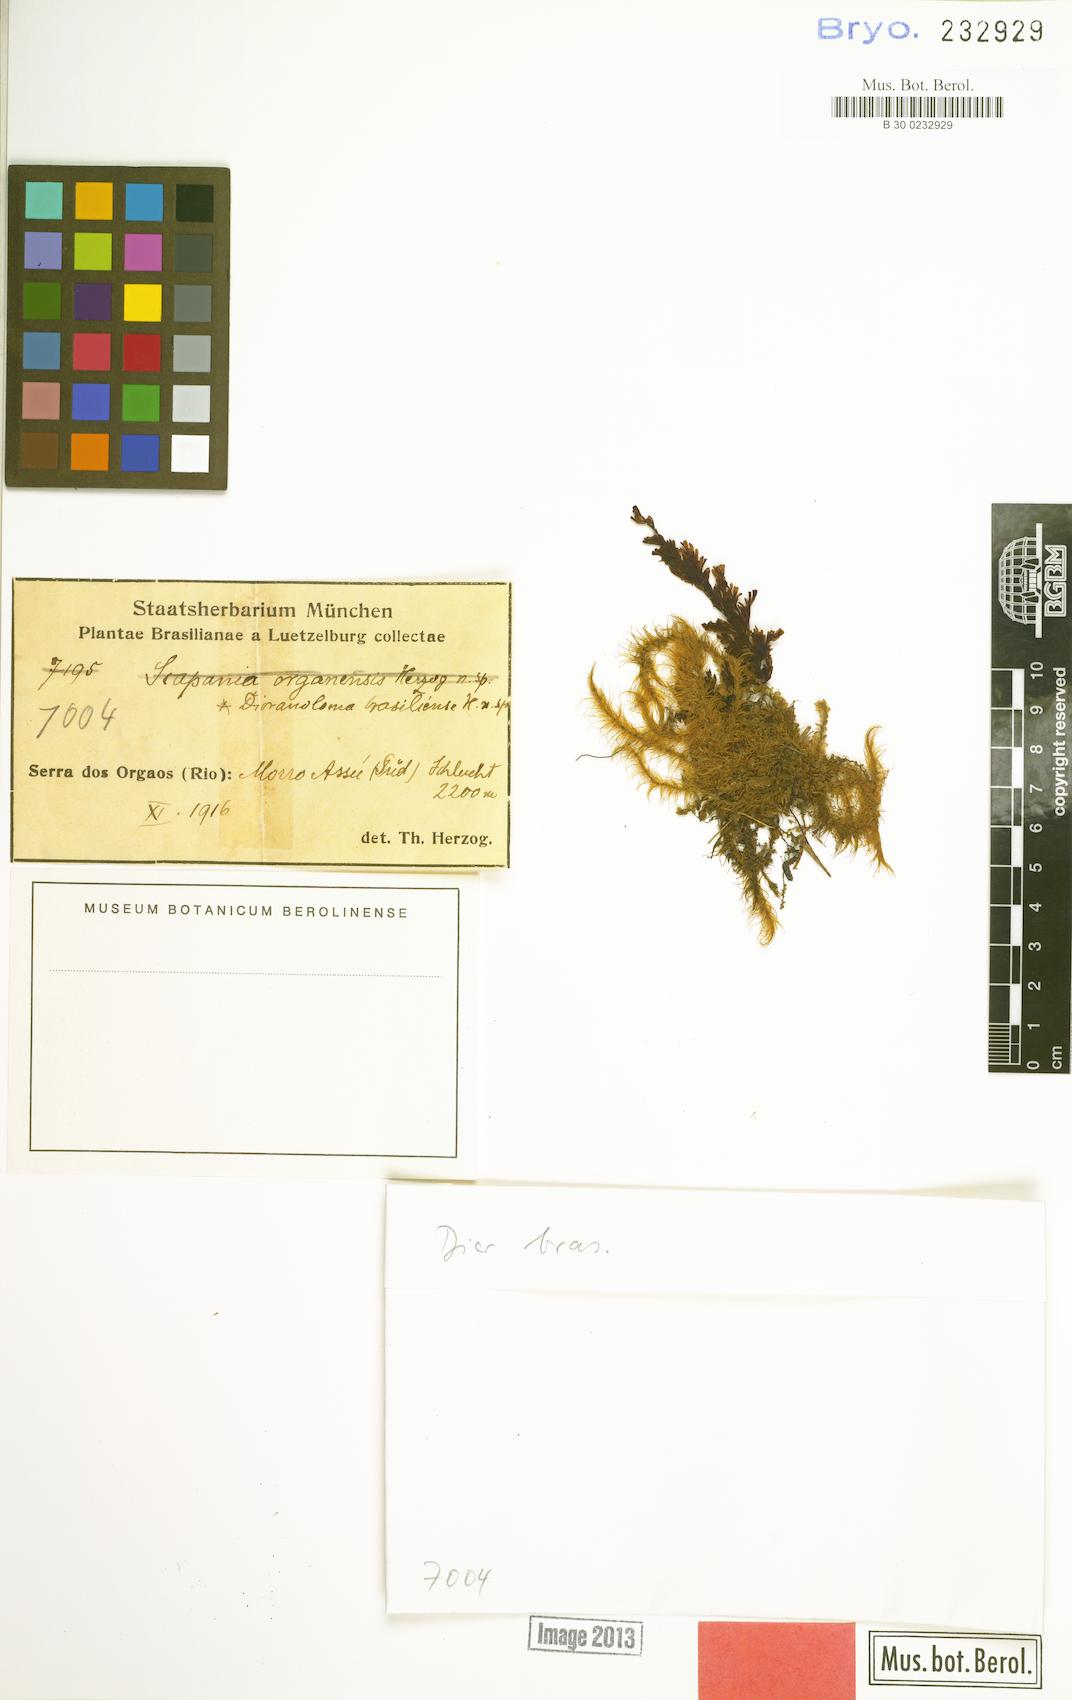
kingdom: Plantae
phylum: Bryophyta
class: Bryopsida
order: Dicranales
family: Dicranaceae
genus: Dicranoloma
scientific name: Dicranoloma brasiliense
